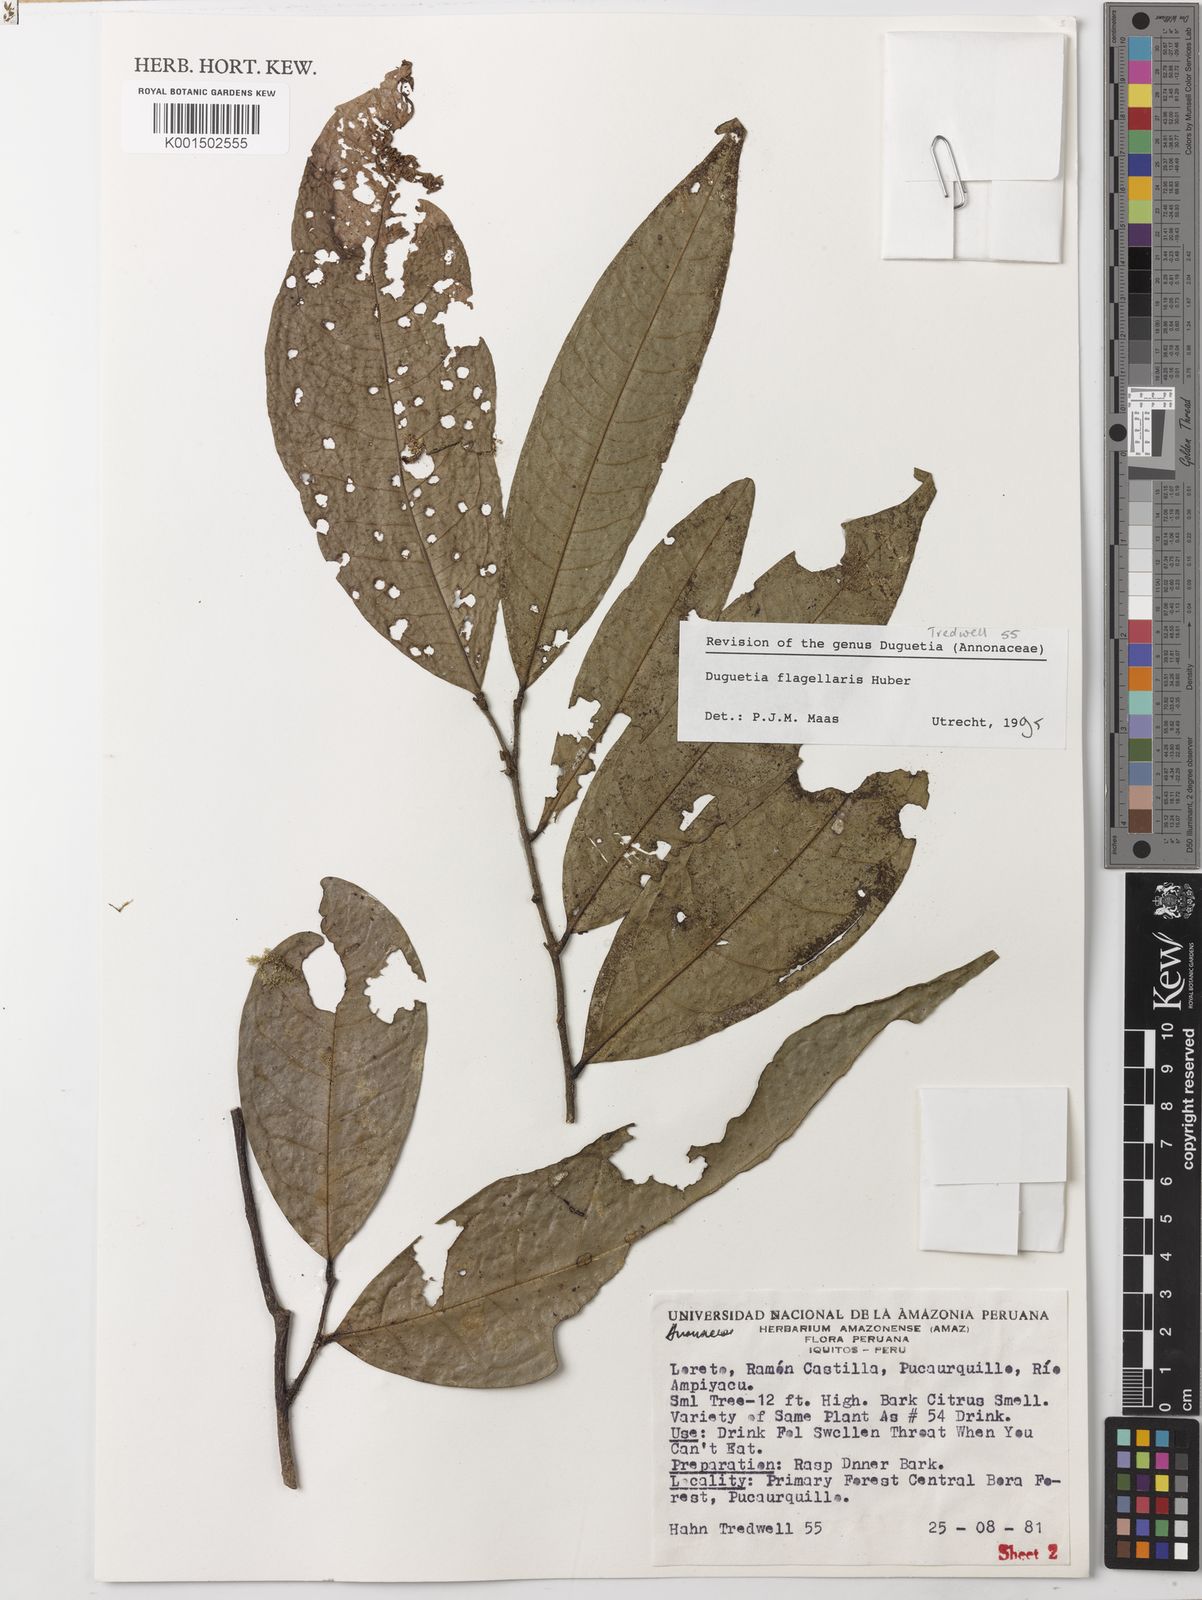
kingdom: Plantae
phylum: Tracheophyta
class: Magnoliopsida
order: Magnoliales
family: Annonaceae
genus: Duguetia
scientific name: Duguetia flagellaris
